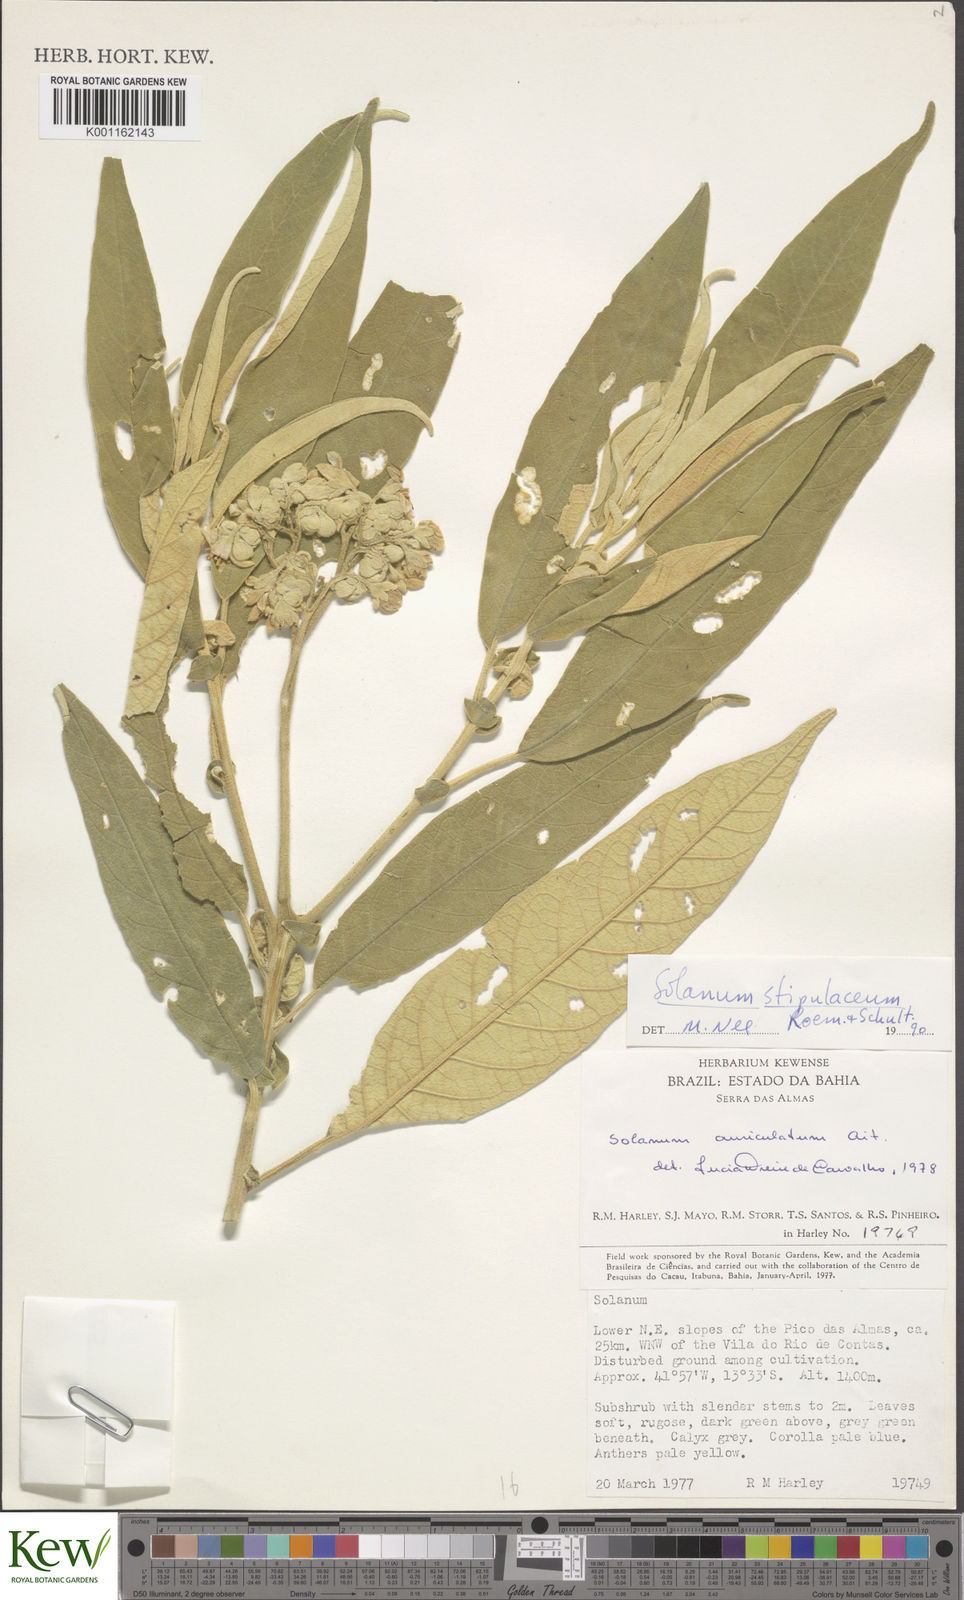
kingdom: Plantae
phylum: Tracheophyta
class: Magnoliopsida
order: Solanales
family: Solanaceae
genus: Solanum
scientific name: Solanum stipulaceum
